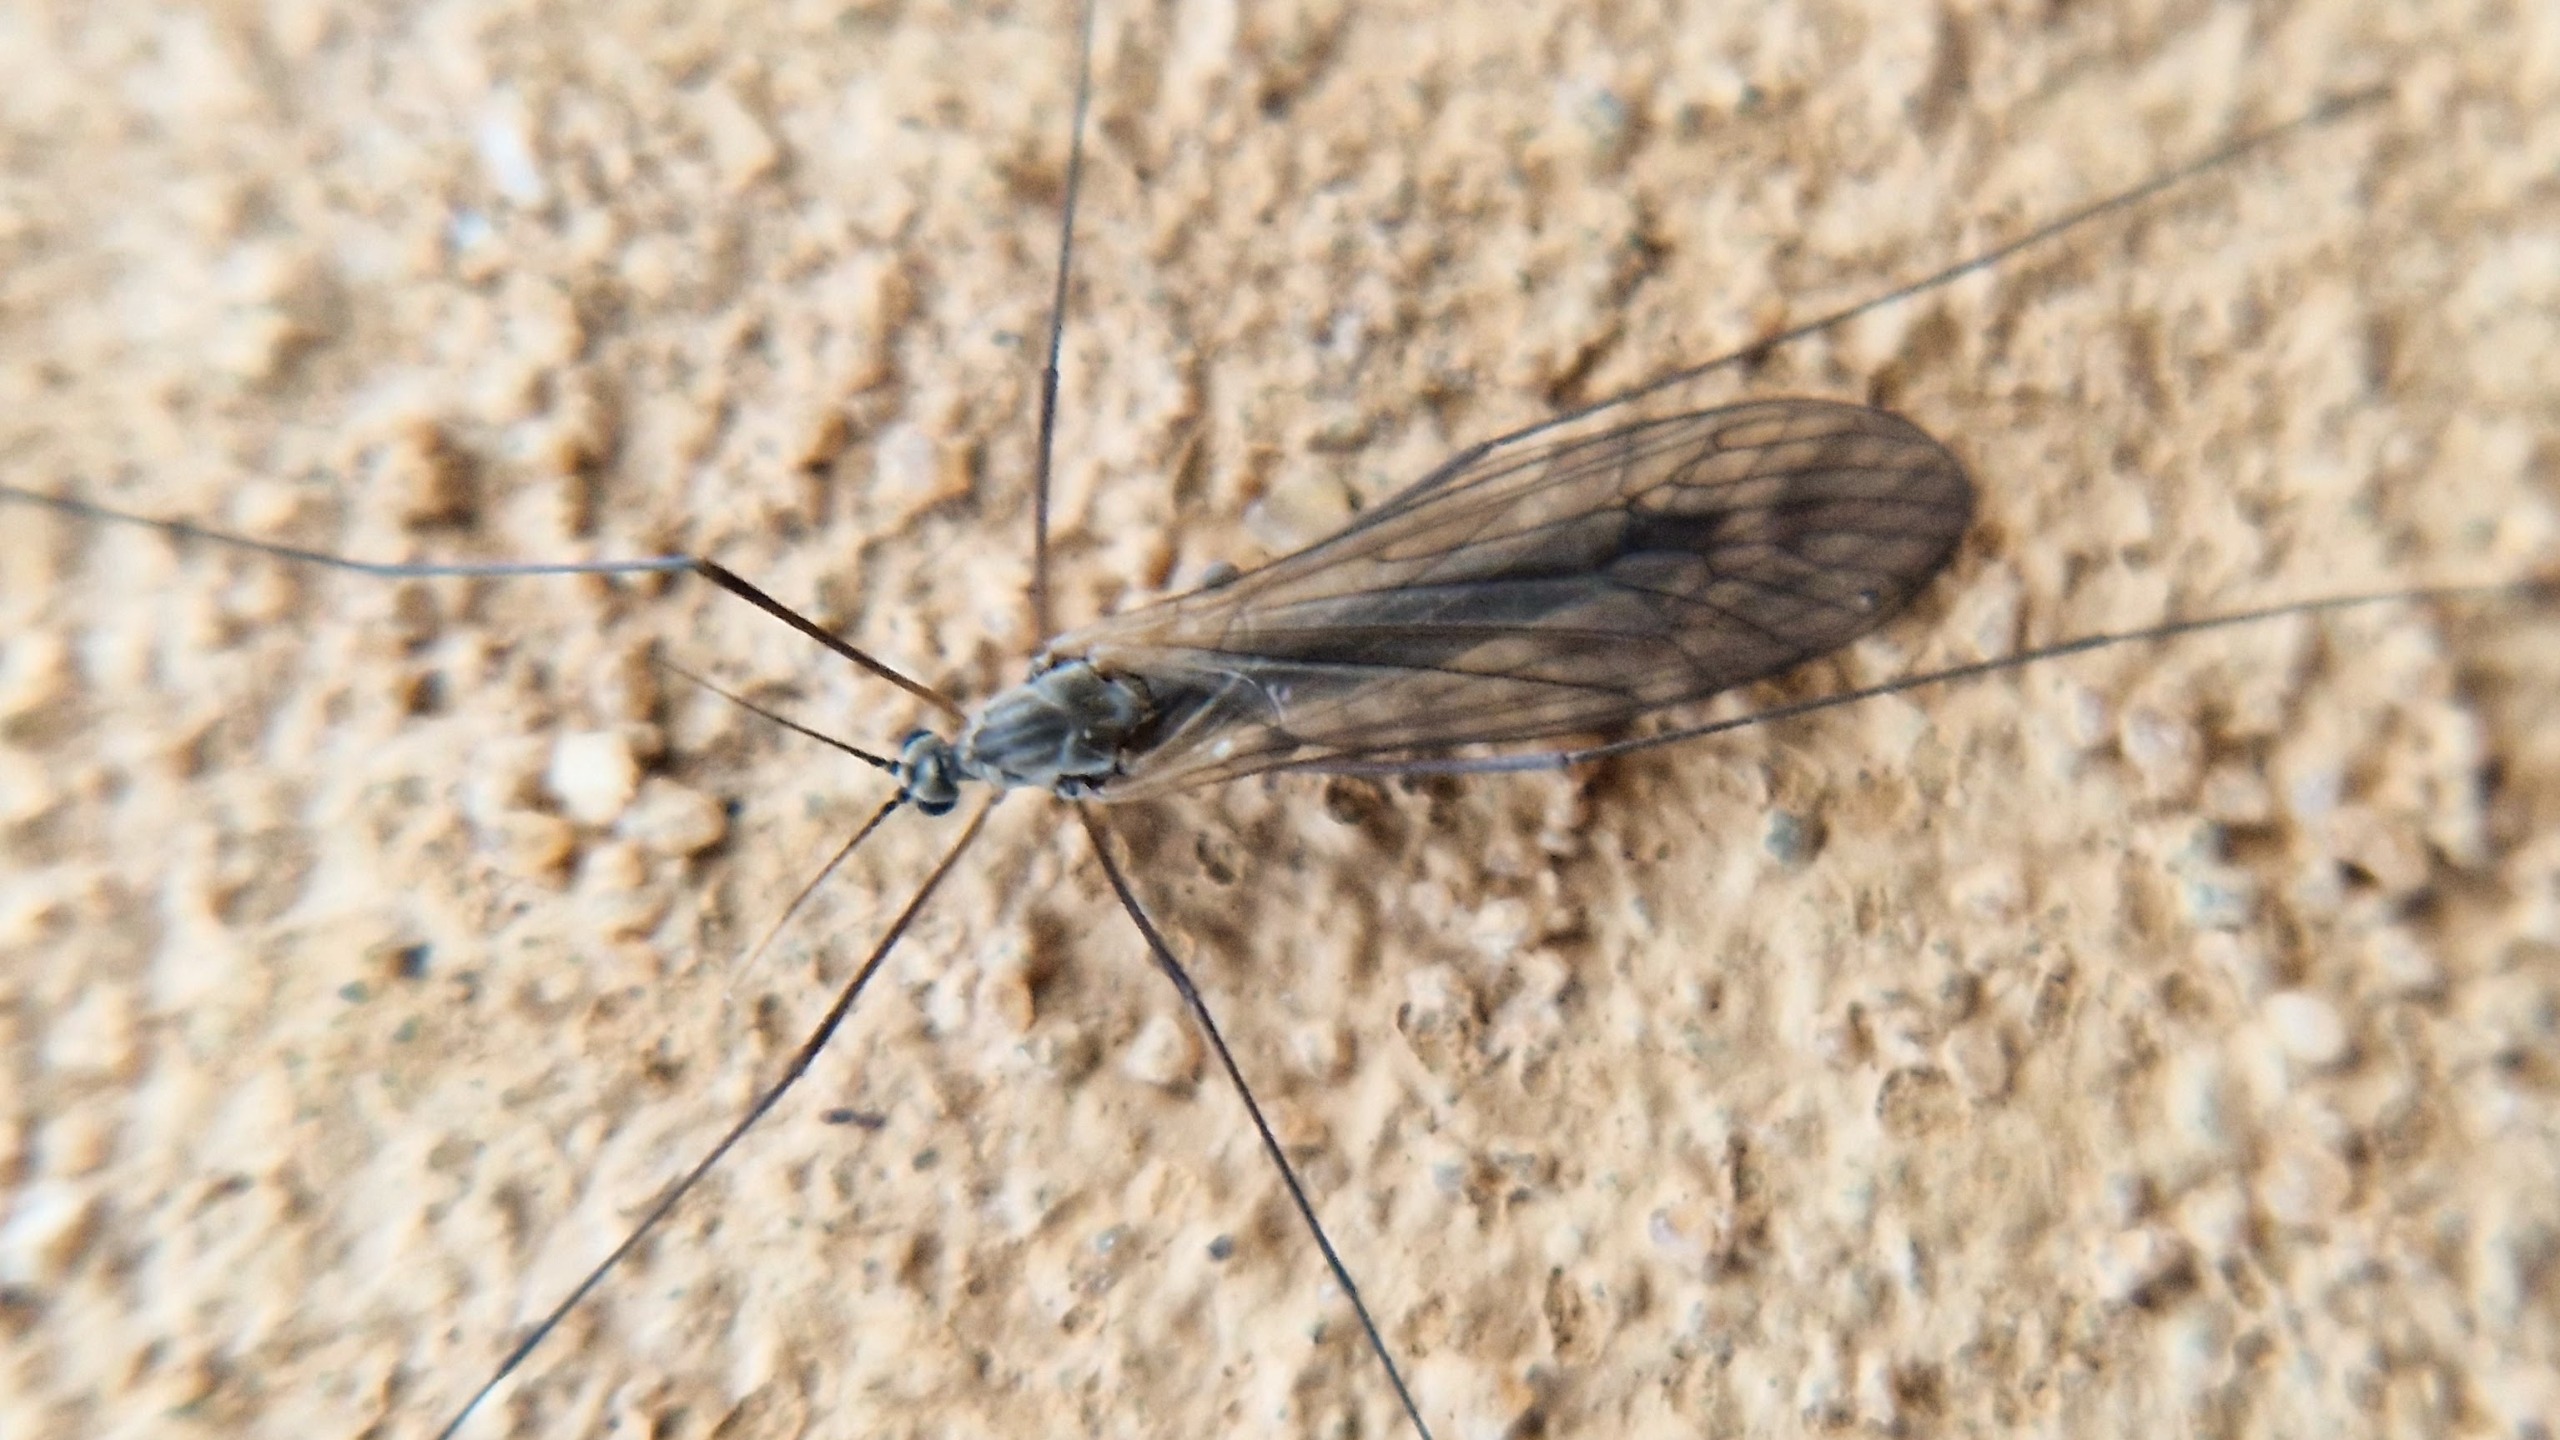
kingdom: Animalia
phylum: Arthropoda
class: Insecta
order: Diptera
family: Trichoceridae
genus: Trichocera
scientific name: Trichocera
